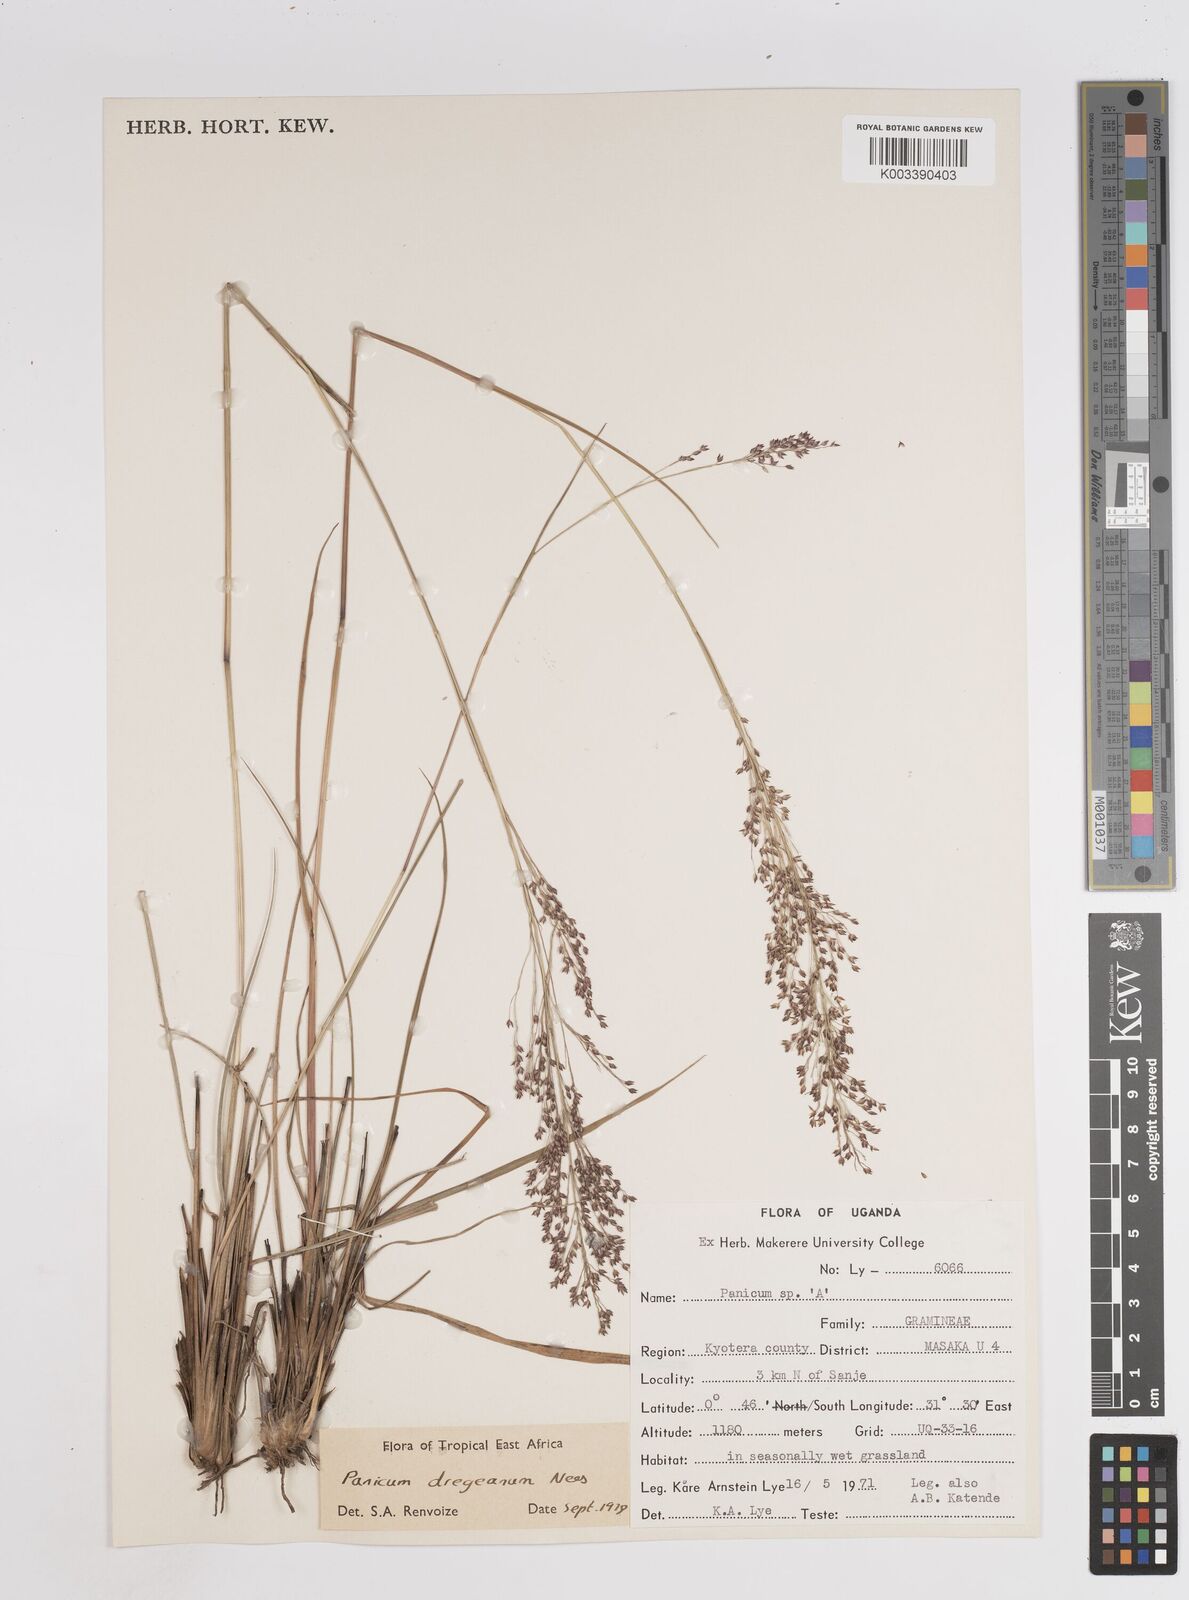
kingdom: Plantae
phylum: Tracheophyta
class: Liliopsida
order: Poales
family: Poaceae
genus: Panicum
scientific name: Panicum dregeanum
